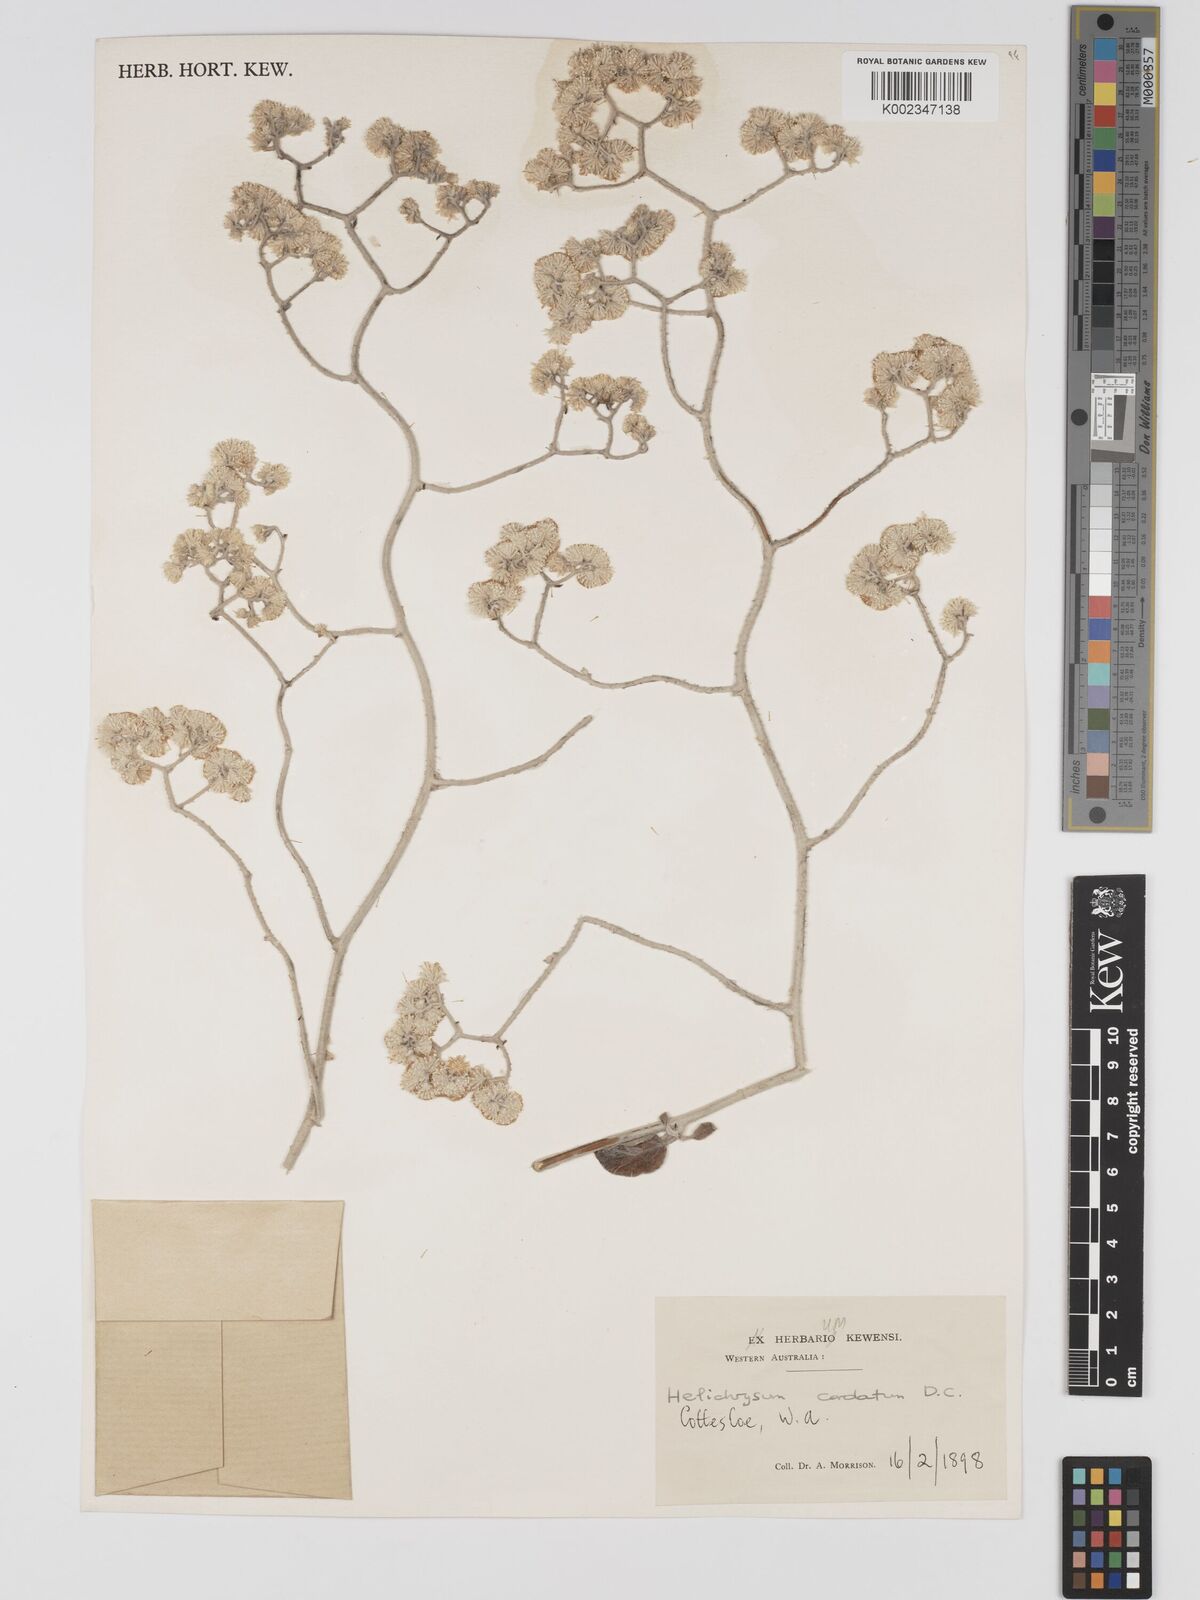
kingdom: Plantae
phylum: Tracheophyta
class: Magnoliopsida
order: Asterales
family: Asteraceae
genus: Ozothamnus
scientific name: Ozothamnus
